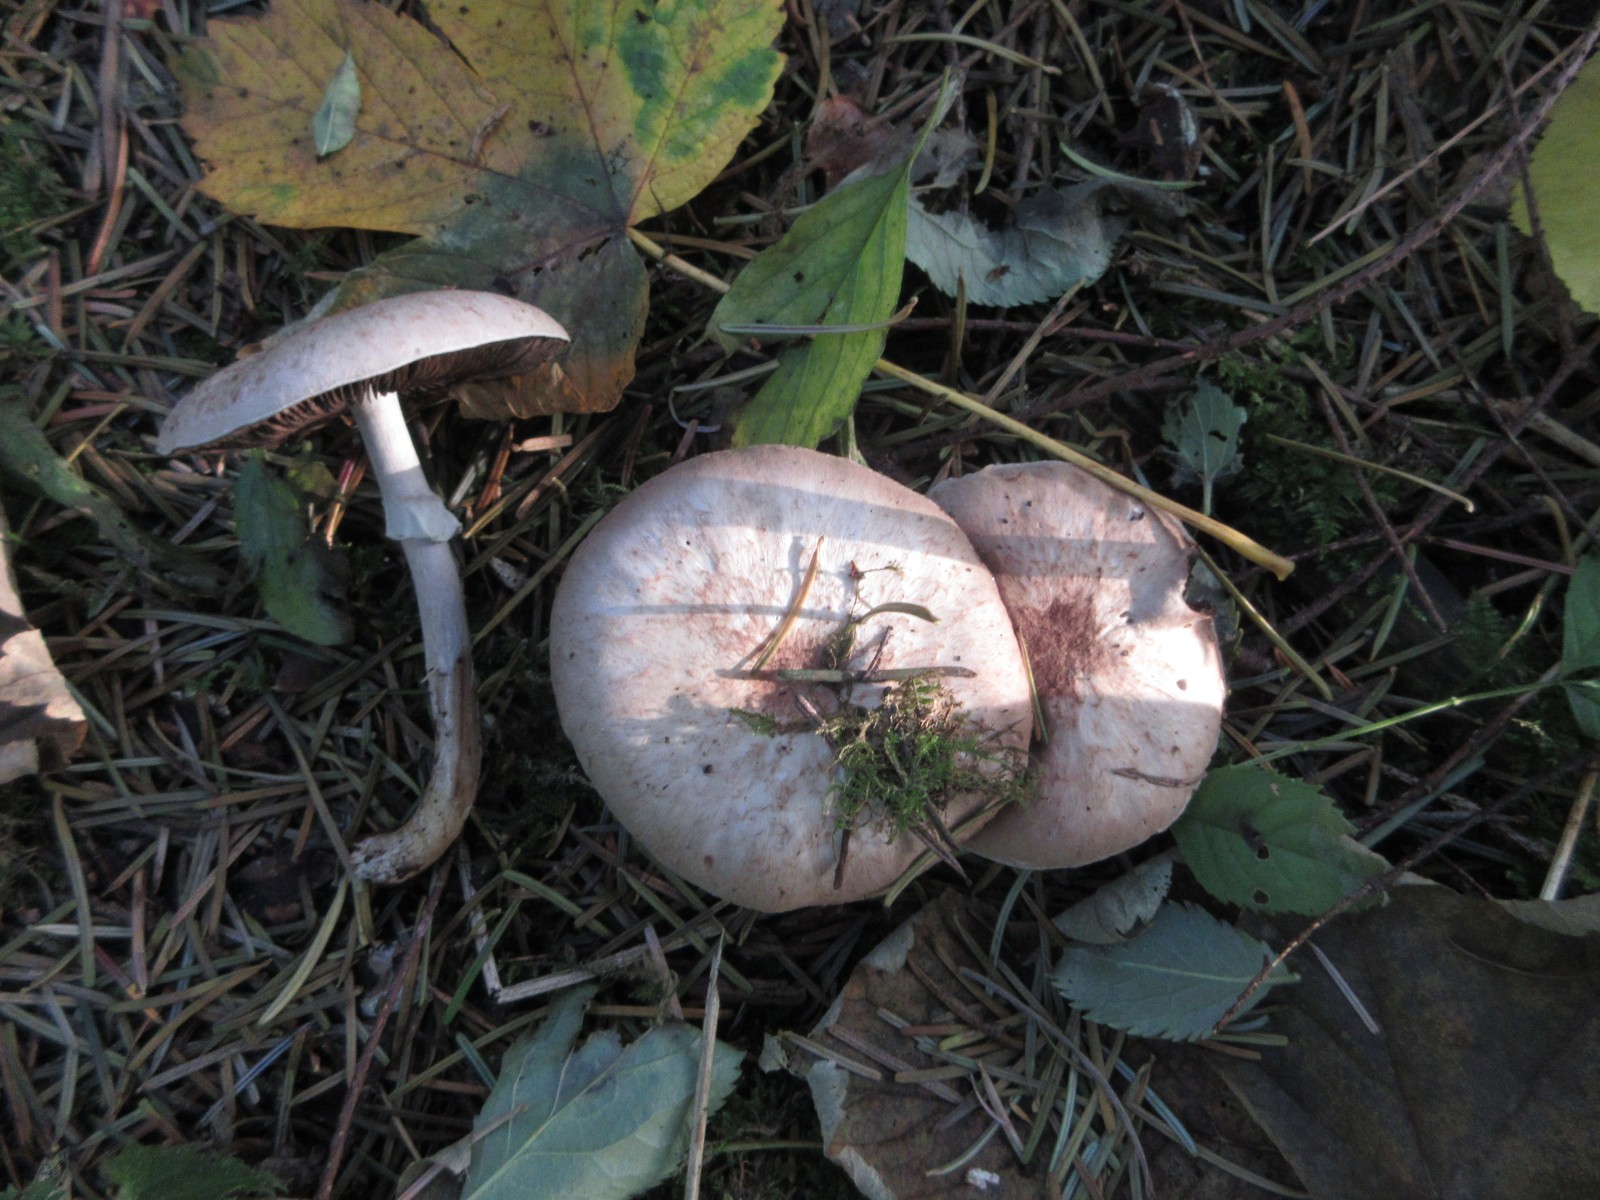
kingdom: Fungi
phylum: Basidiomycota
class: Agaricomycetes
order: Agaricales
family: Agaricaceae
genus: Agaricus
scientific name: Agaricus sylvaticus
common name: lille blod-champignon
